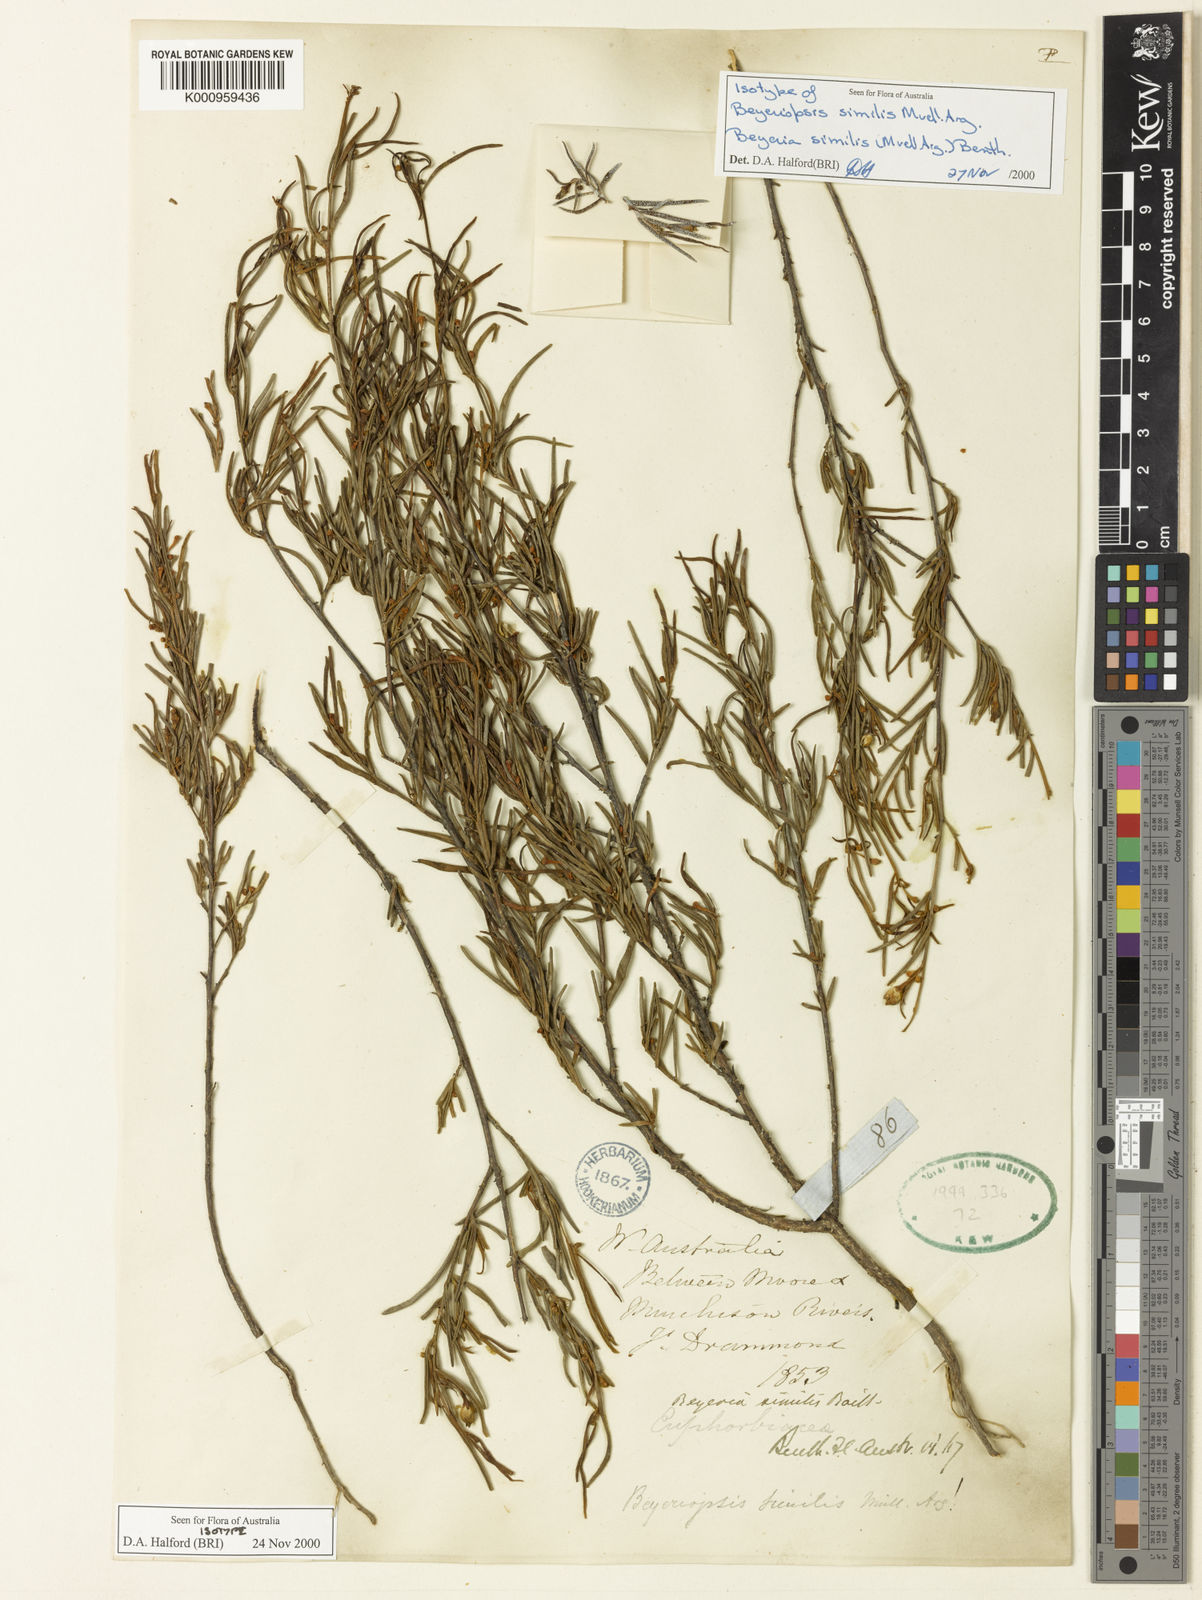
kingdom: Plantae
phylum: Tracheophyta
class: Magnoliopsida
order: Malpighiales
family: Euphorbiaceae
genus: Beyeria
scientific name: Beyeria
